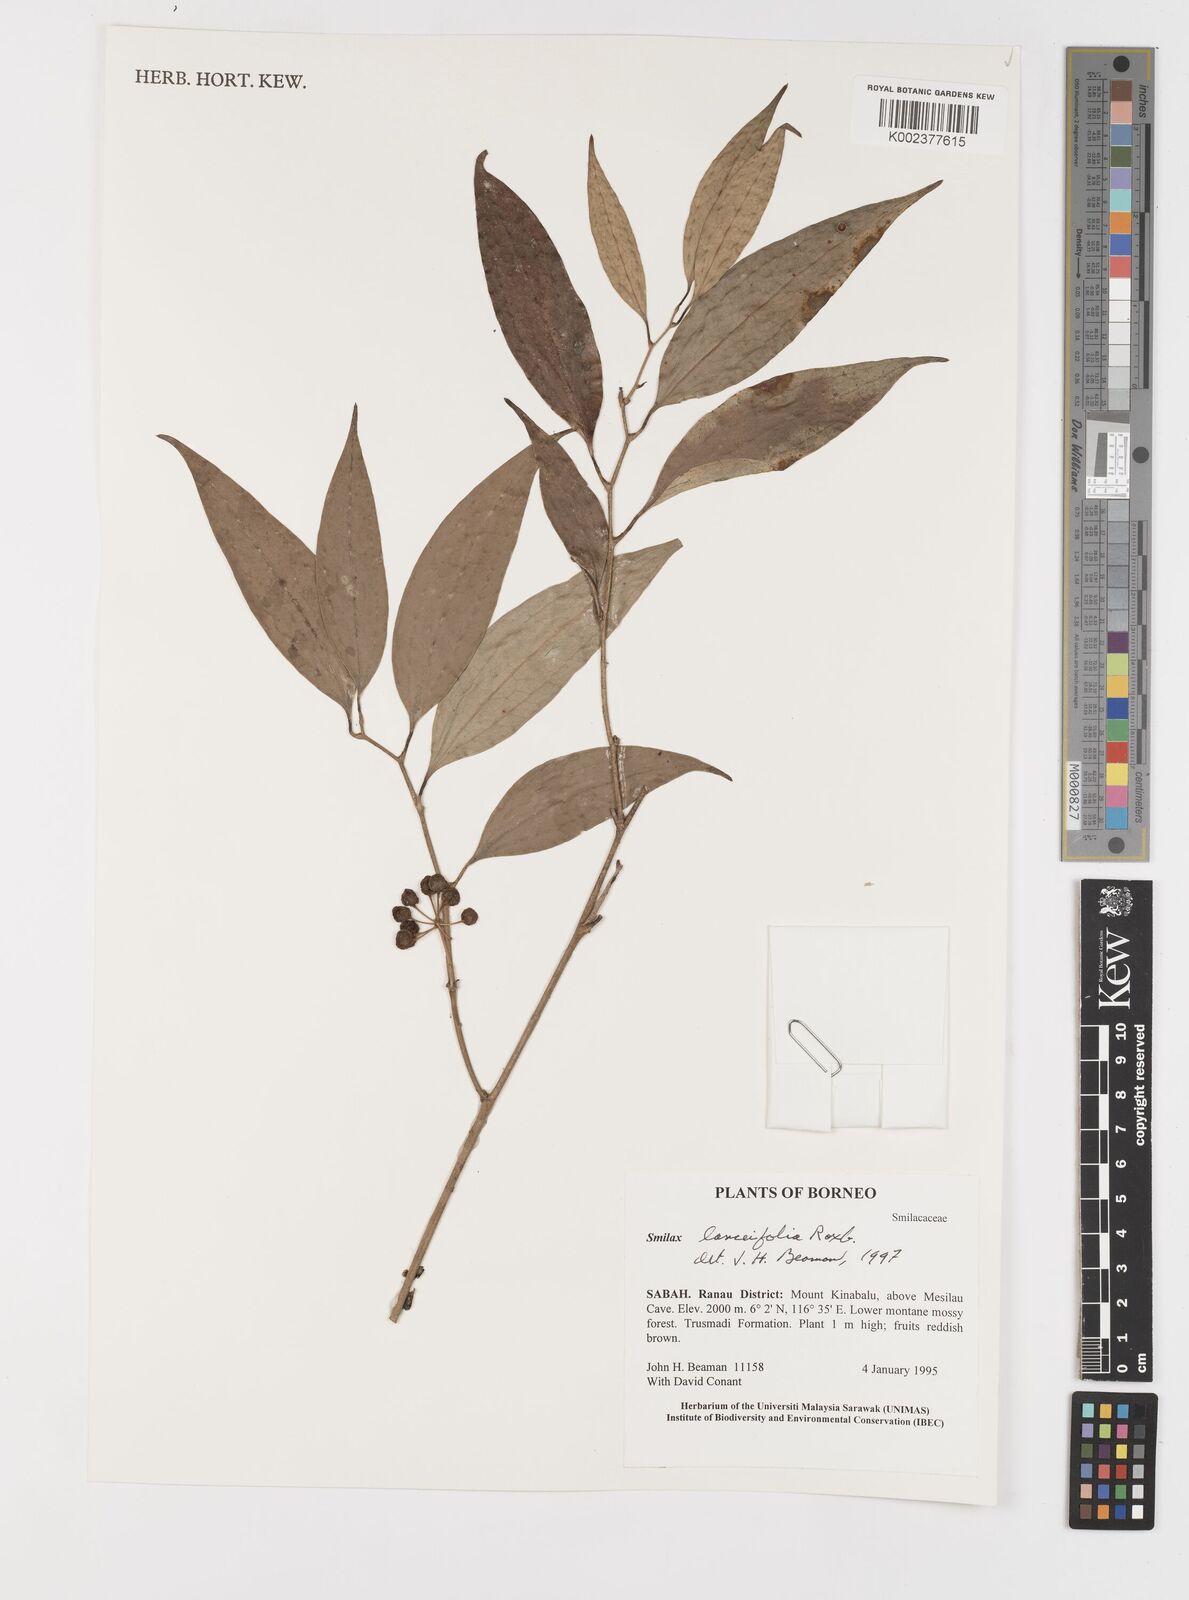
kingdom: Plantae
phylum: Tracheophyta
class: Liliopsida
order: Liliales
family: Smilacaceae
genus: Smilax
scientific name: Smilax lanceifolia
